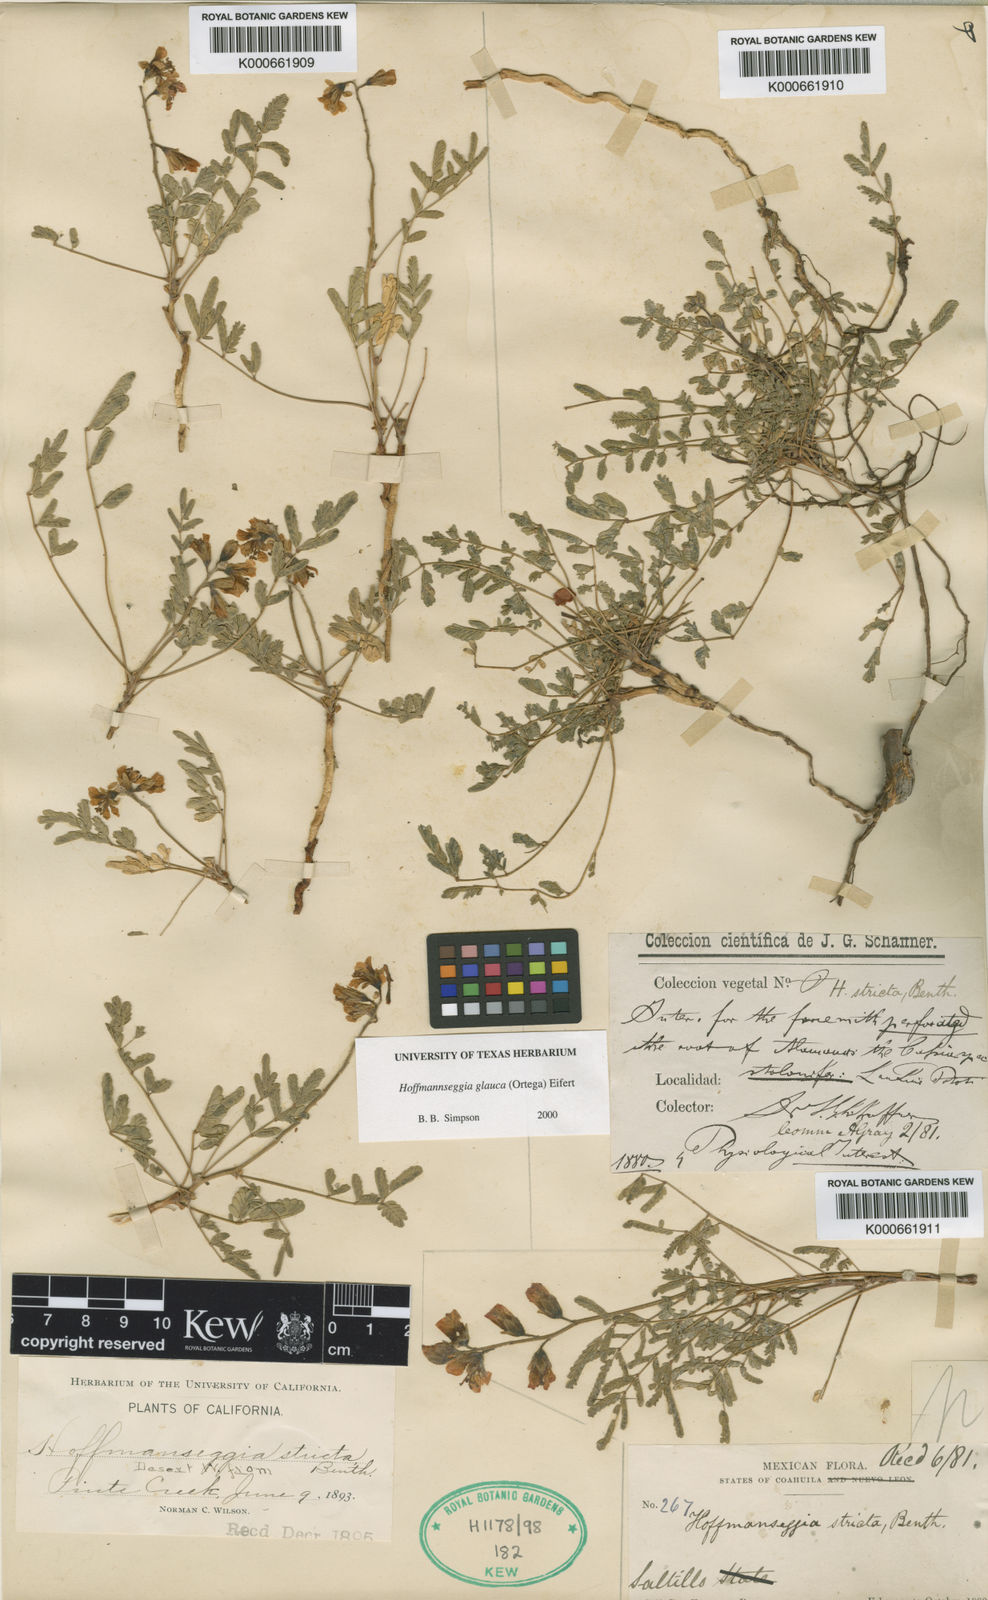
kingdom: Plantae
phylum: Tracheophyta
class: Magnoliopsida
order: Fabales
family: Fabaceae
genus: Hoffmannseggia
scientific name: Hoffmannseggia glauca
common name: Pignut
